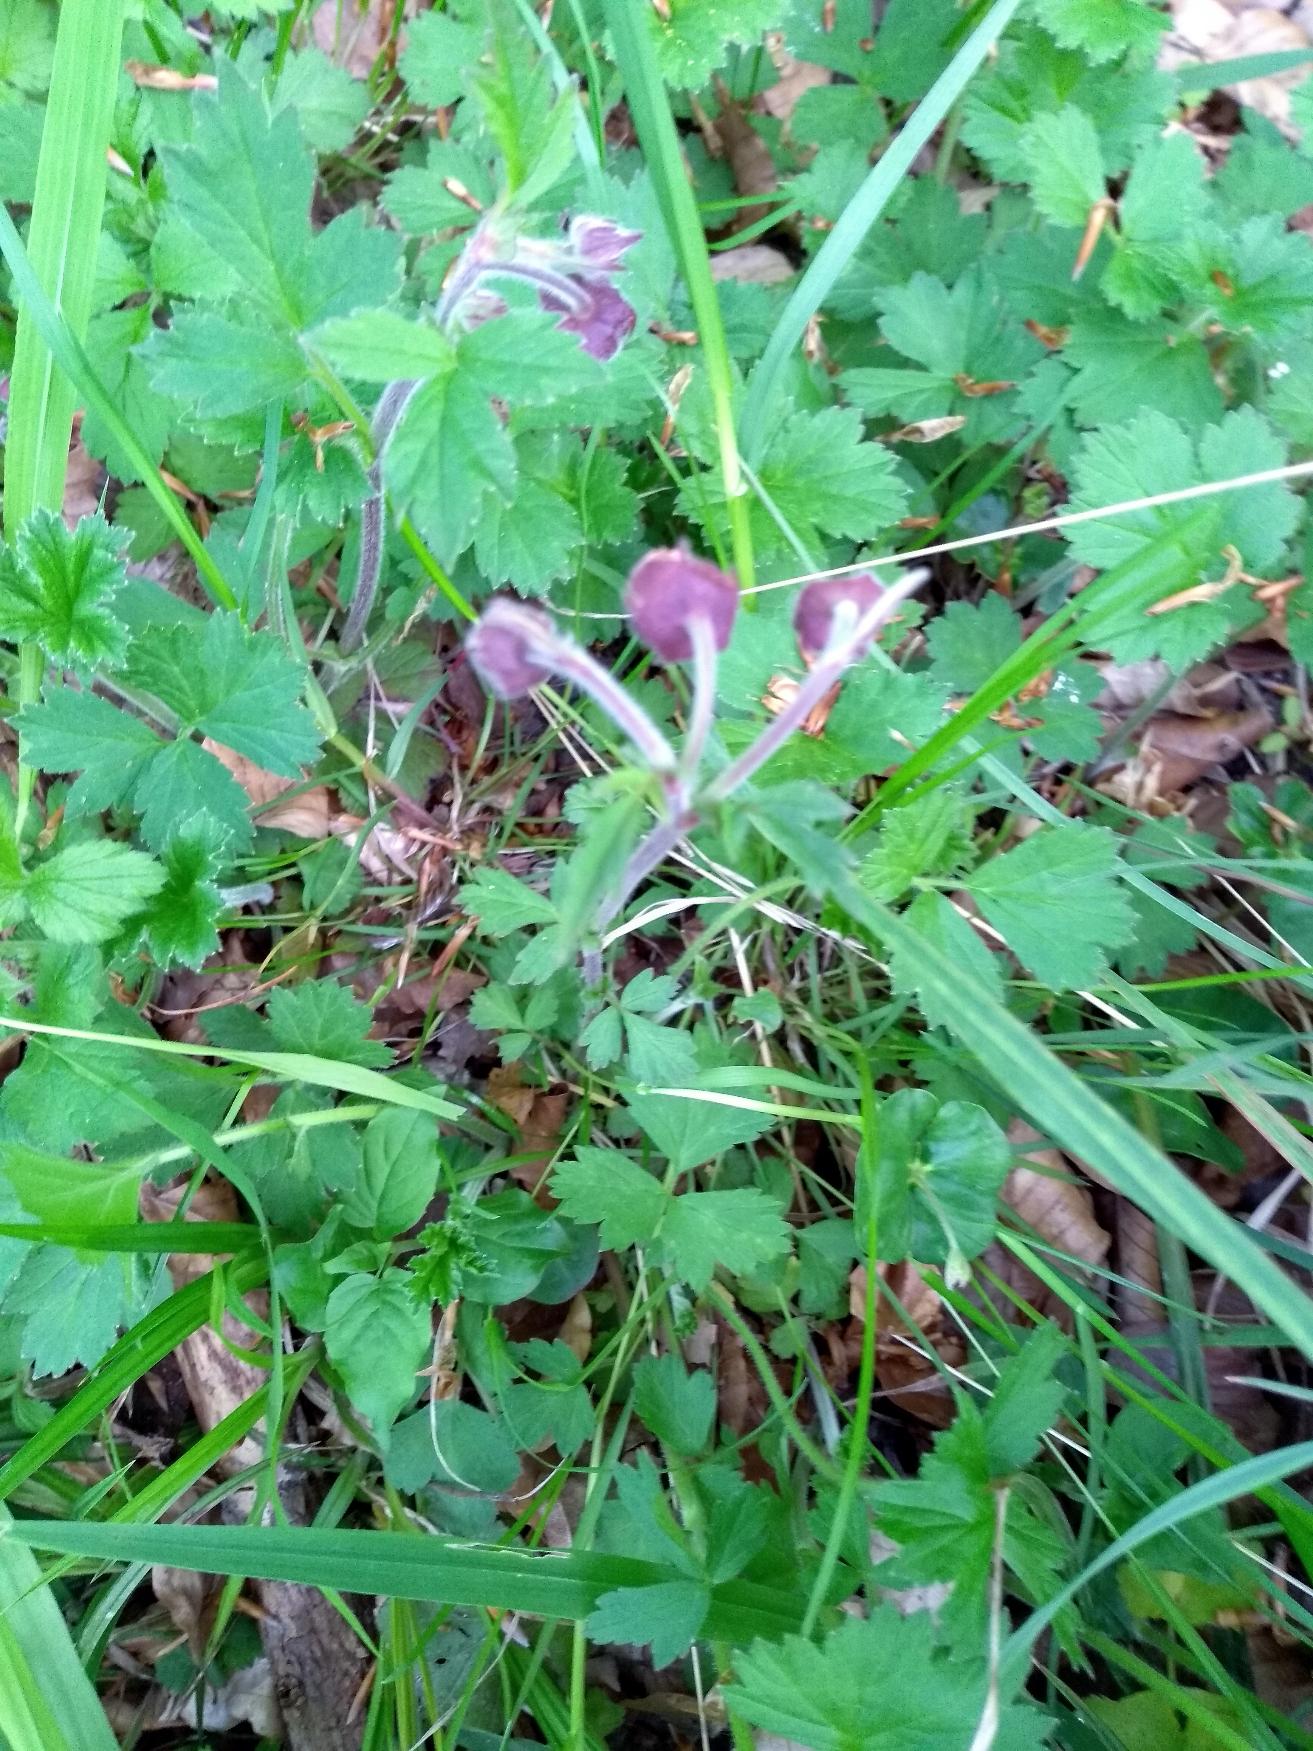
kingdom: Plantae
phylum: Tracheophyta
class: Magnoliopsida
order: Rosales
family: Rosaceae
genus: Geum
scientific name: Geum rivale
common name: Eng-nellikerod
